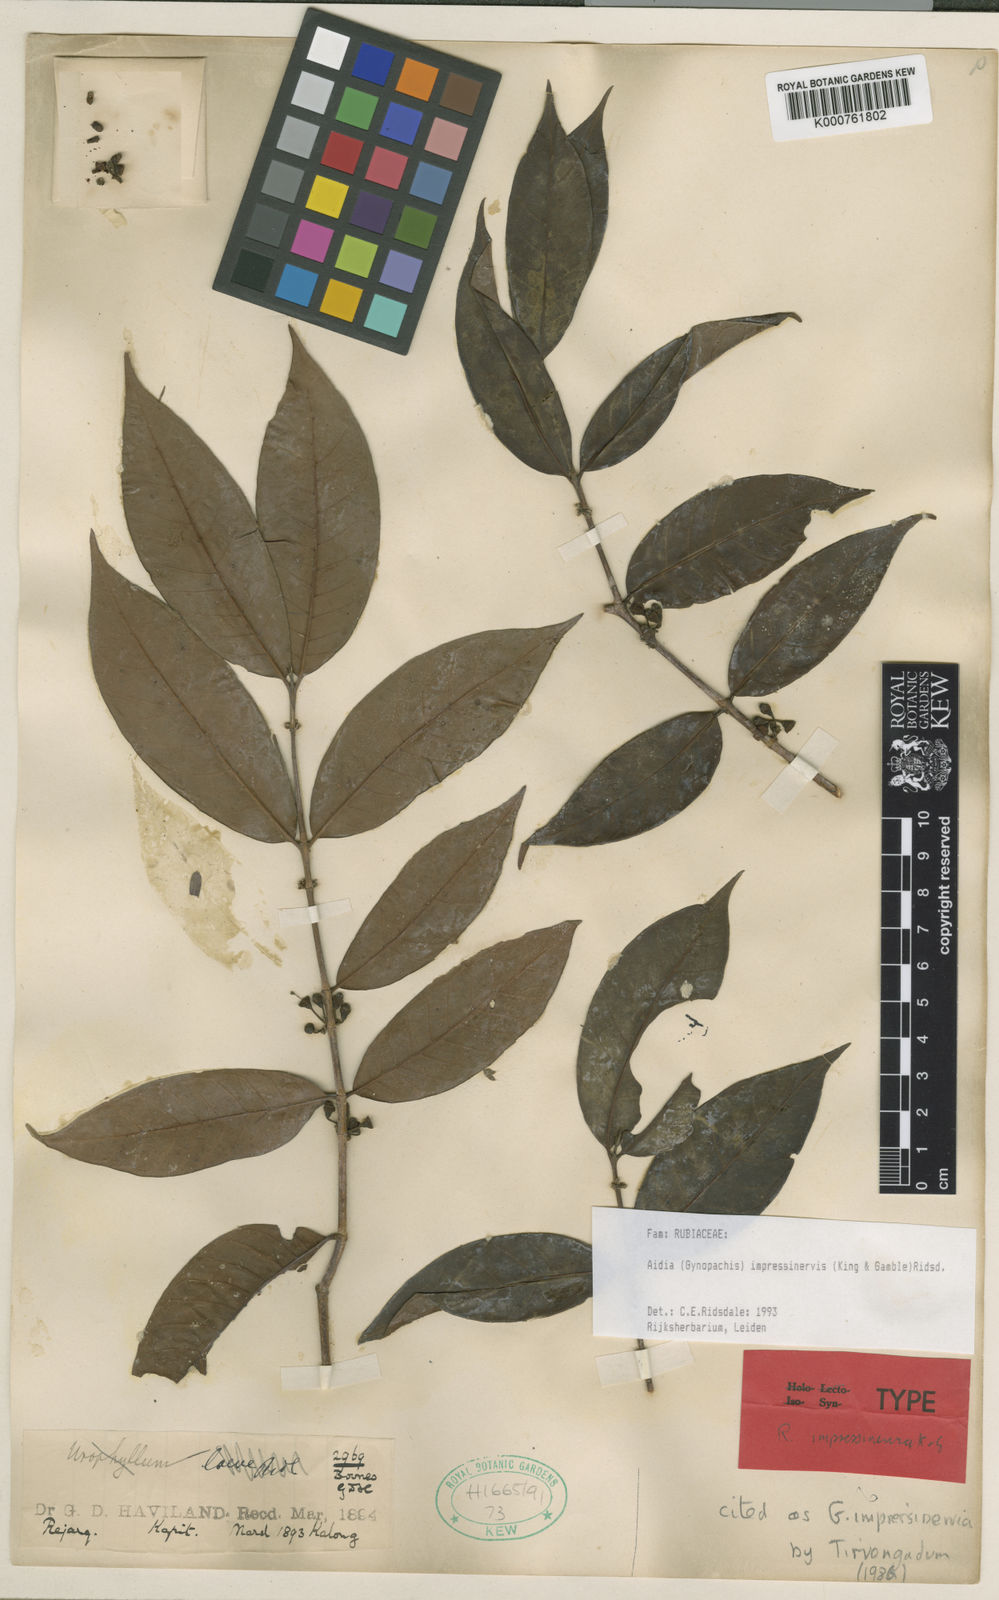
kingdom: Plantae
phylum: Tracheophyta
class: Magnoliopsida
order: Gentianales
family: Rubiaceae
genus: Aidia
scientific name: Aidia impressinervis
